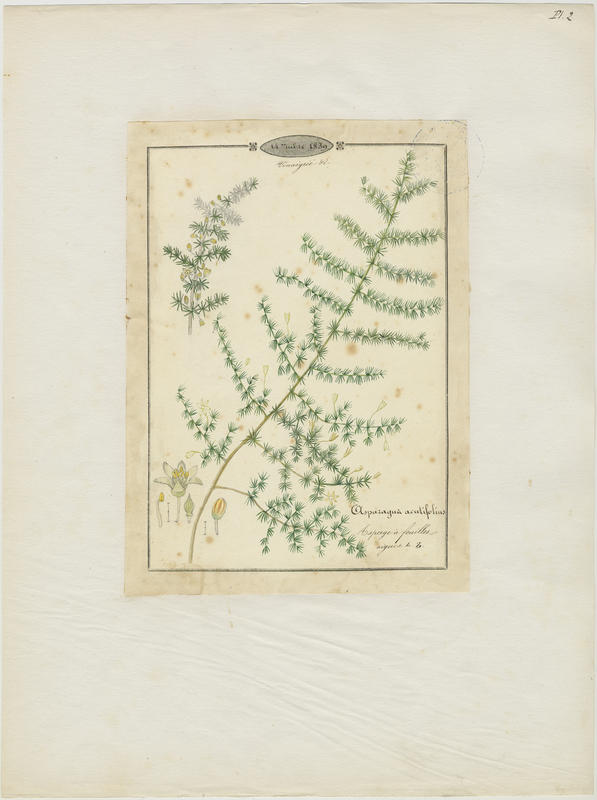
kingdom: Plantae
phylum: Tracheophyta
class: Liliopsida
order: Asparagales
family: Asparagaceae
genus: Asparagus
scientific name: Asparagus acutifolius
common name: Wild asparagus
